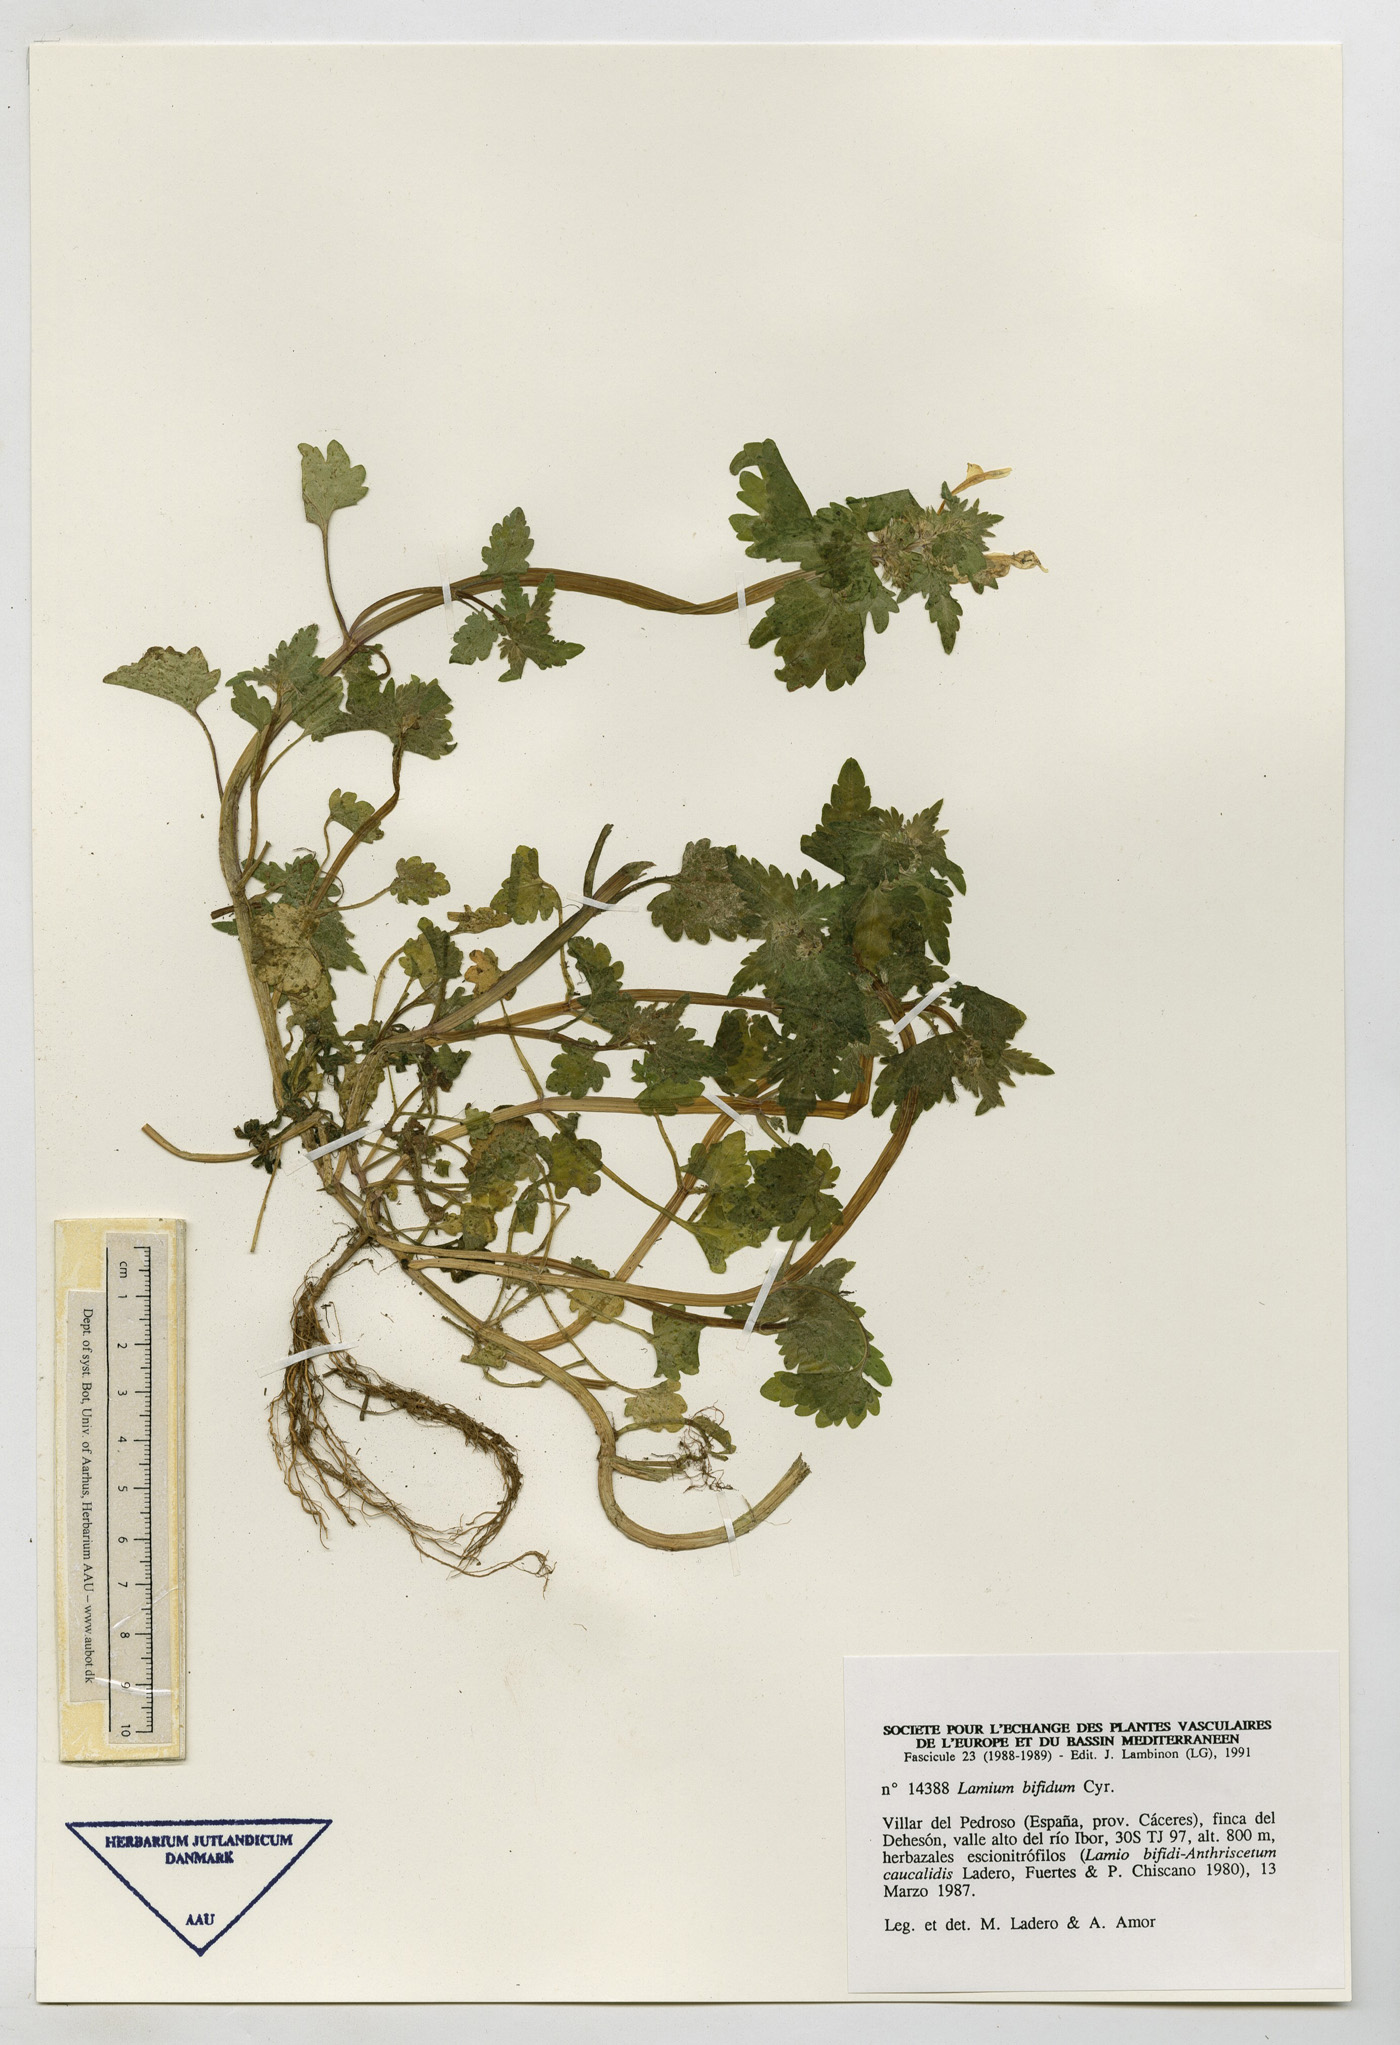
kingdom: Plantae
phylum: Tracheophyta
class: Magnoliopsida
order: Lamiales
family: Lamiaceae
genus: Lamium
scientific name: Lamium bifidum
